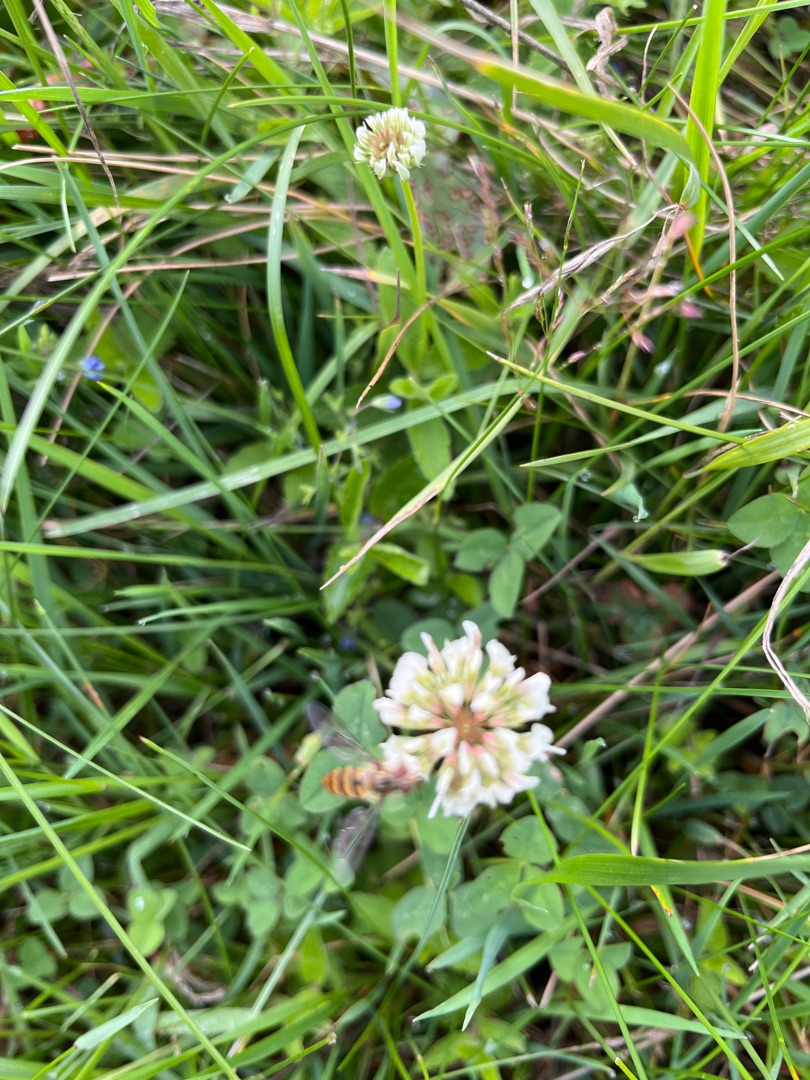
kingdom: Plantae
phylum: Tracheophyta
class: Magnoliopsida
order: Fabales
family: Fabaceae
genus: Trifolium
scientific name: Trifolium repens
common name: Hvid-kløver
